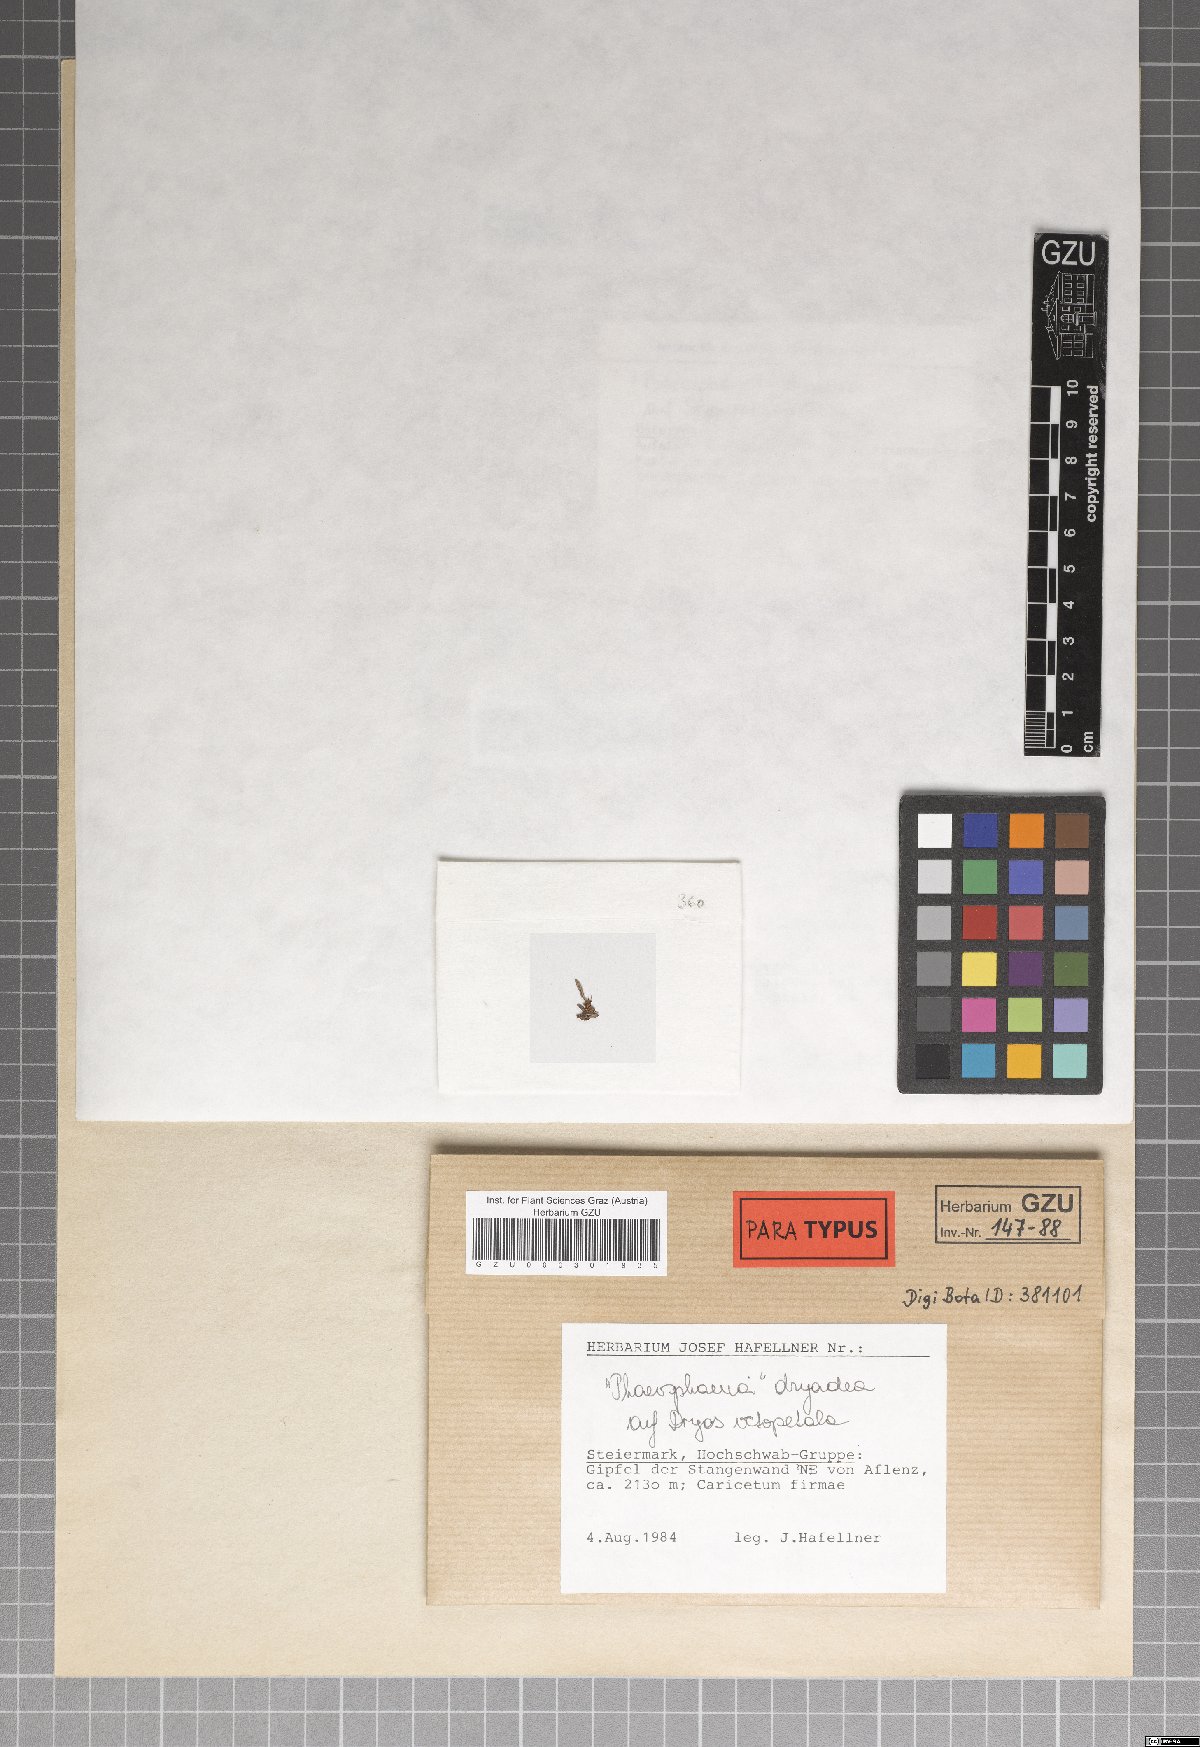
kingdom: Fungi
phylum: Ascomycota
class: Dothideomycetes
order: Pleosporales
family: Phaeosphaeriaceae
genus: Phaeosphaeria
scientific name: Phaeosphaeria dryadis
